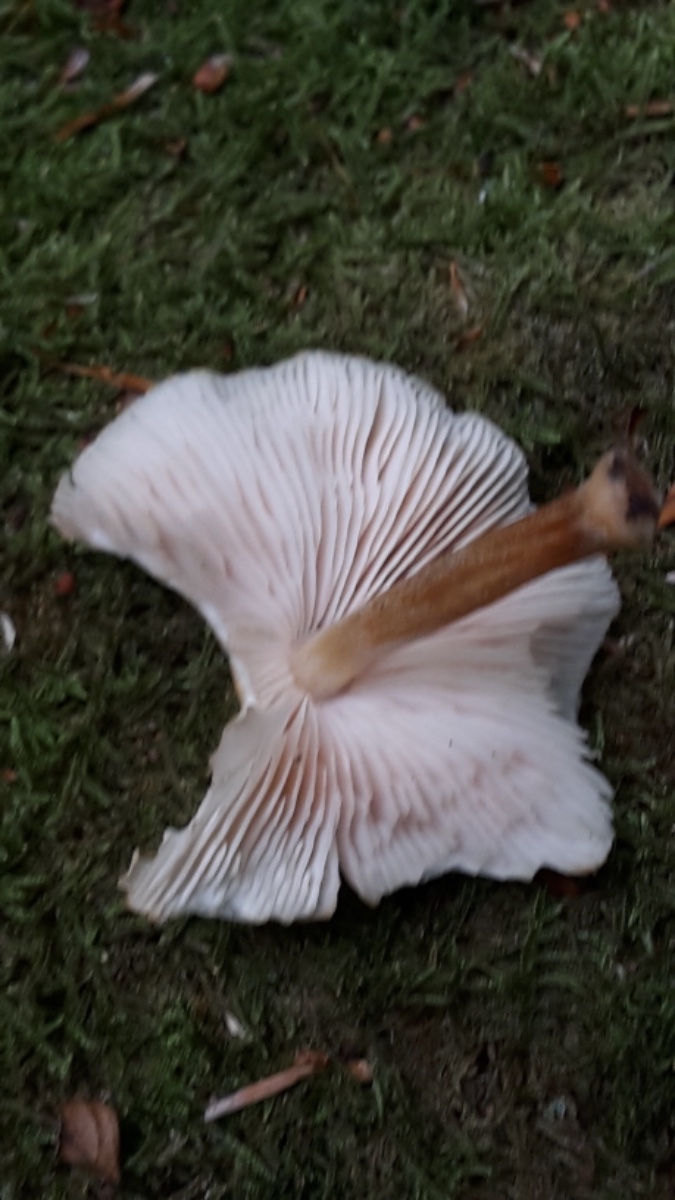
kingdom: Fungi
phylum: Basidiomycota
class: Agaricomycetes
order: Agaricales
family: Pluteaceae
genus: Pluteus
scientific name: Pluteus plautus
